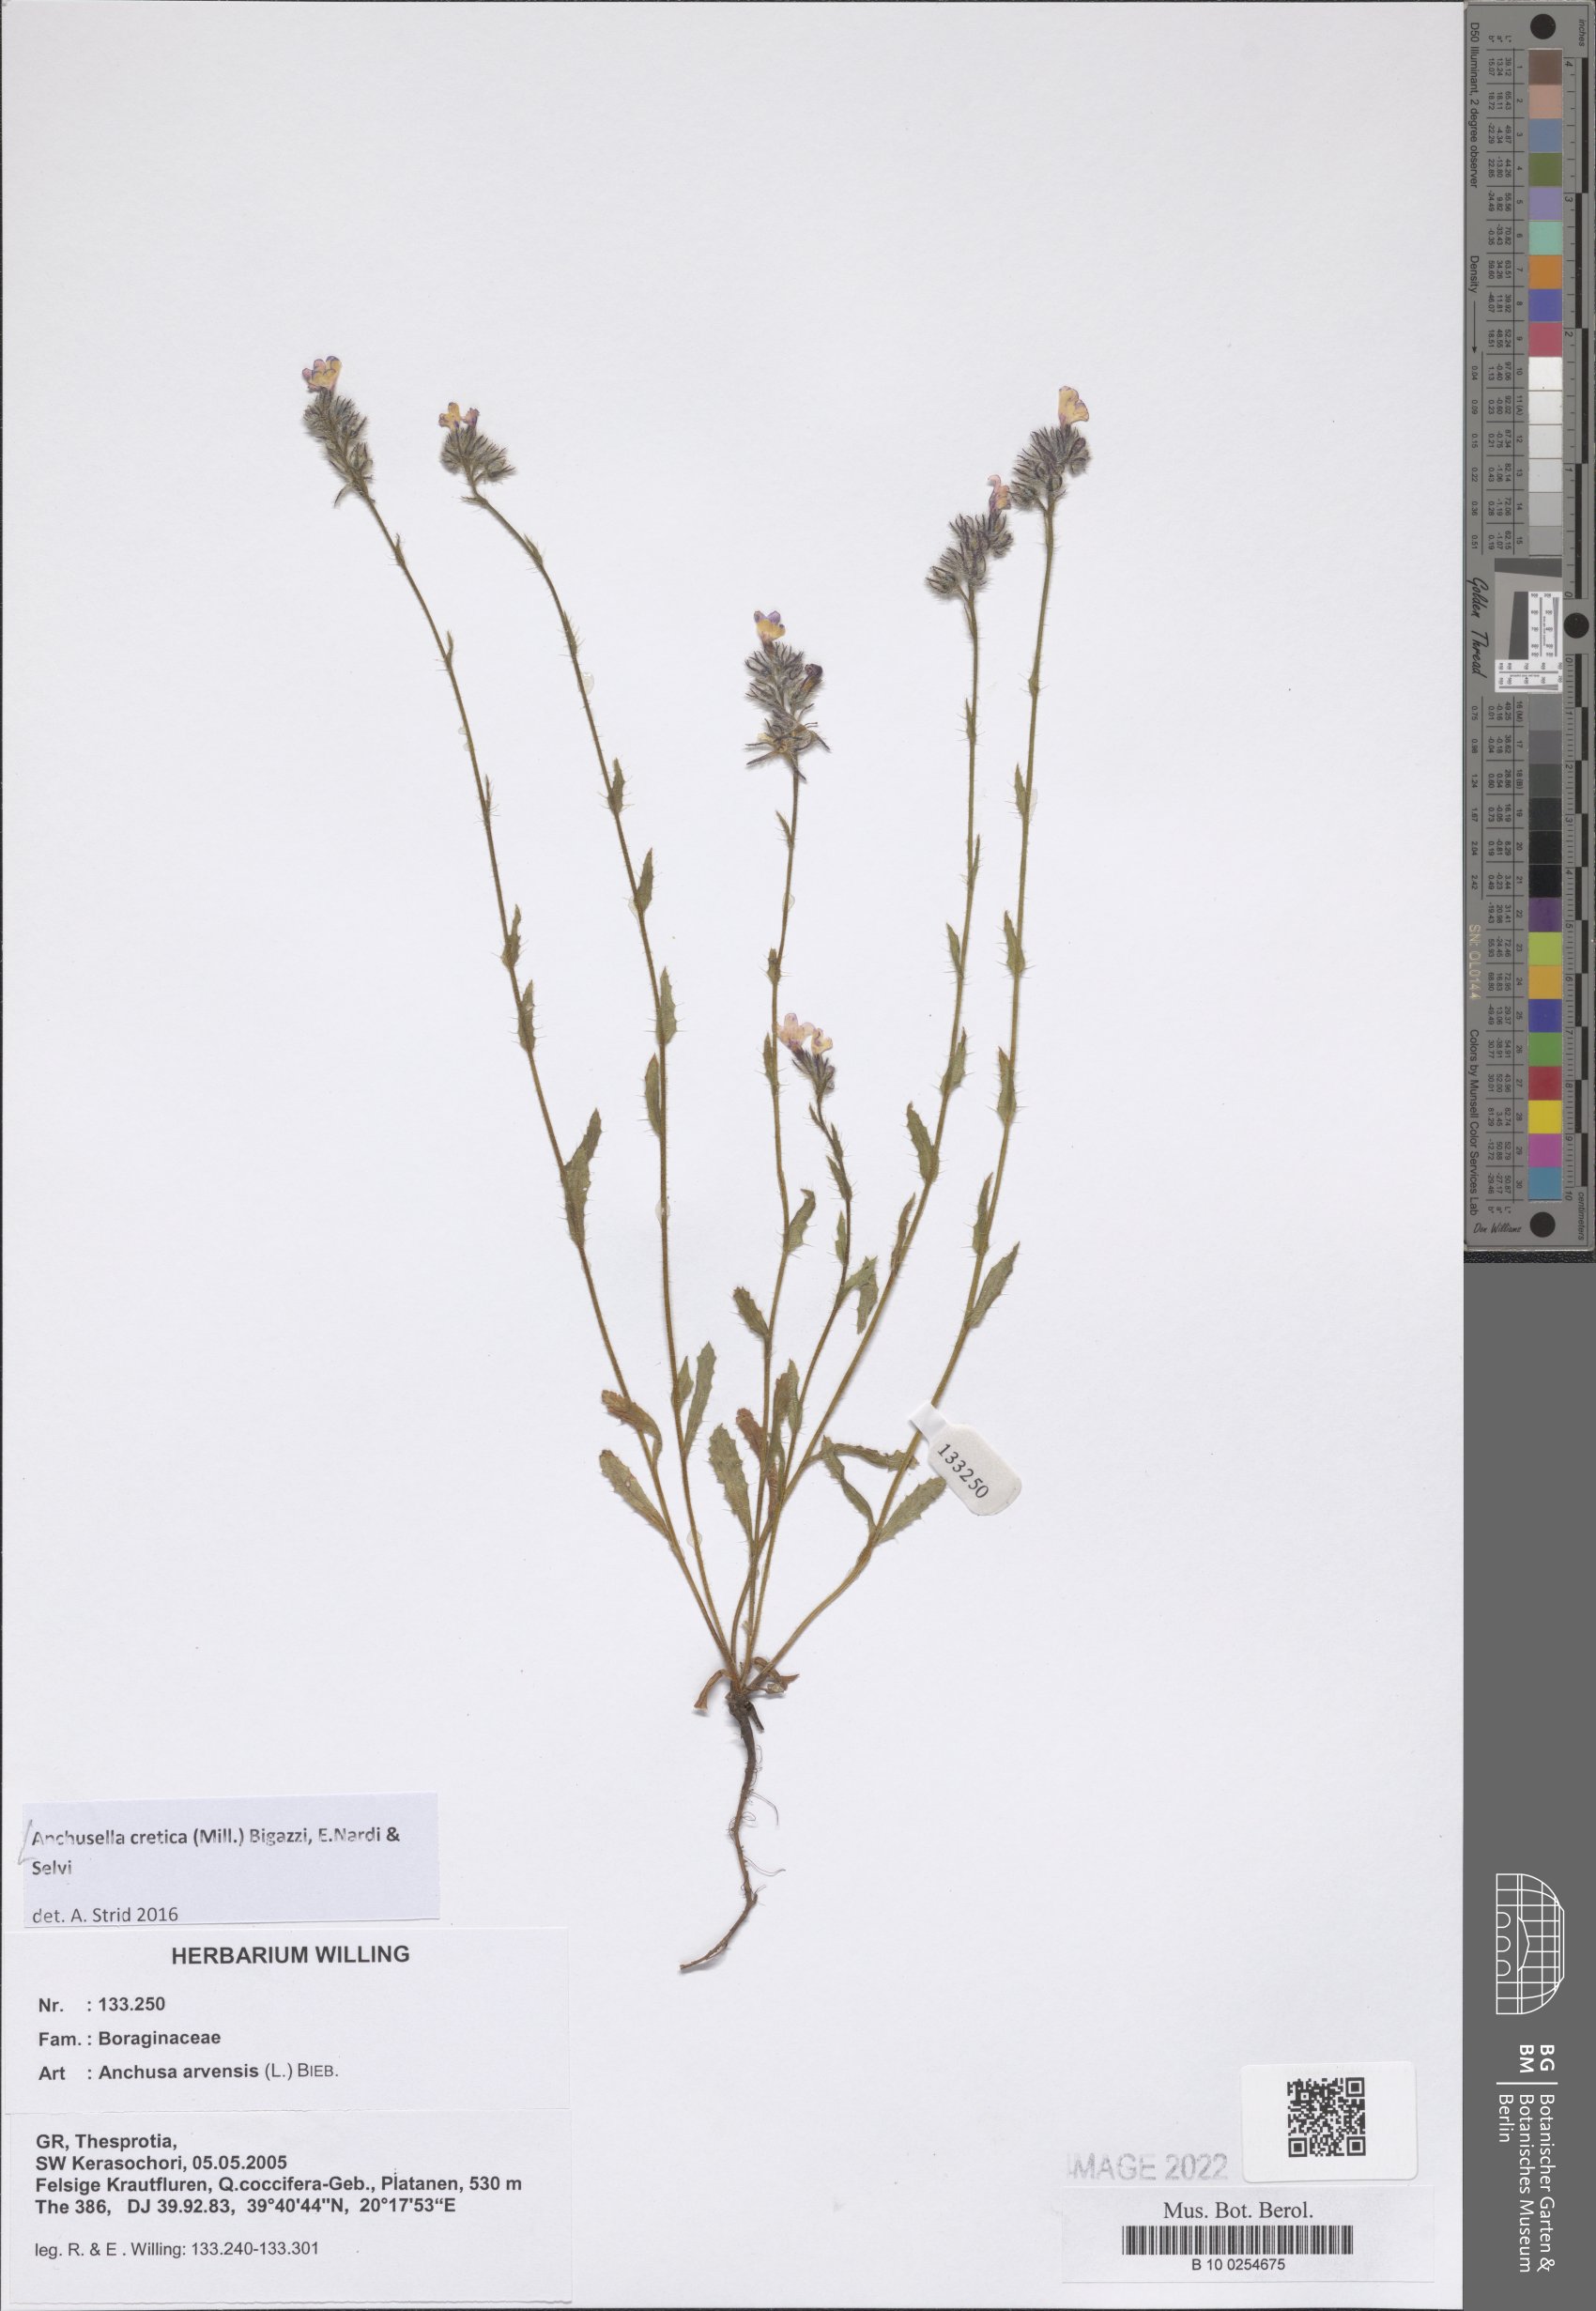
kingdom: Plantae
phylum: Tracheophyta
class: Magnoliopsida
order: Boraginales
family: Boraginaceae
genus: Anchusella
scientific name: Anchusella cretica
